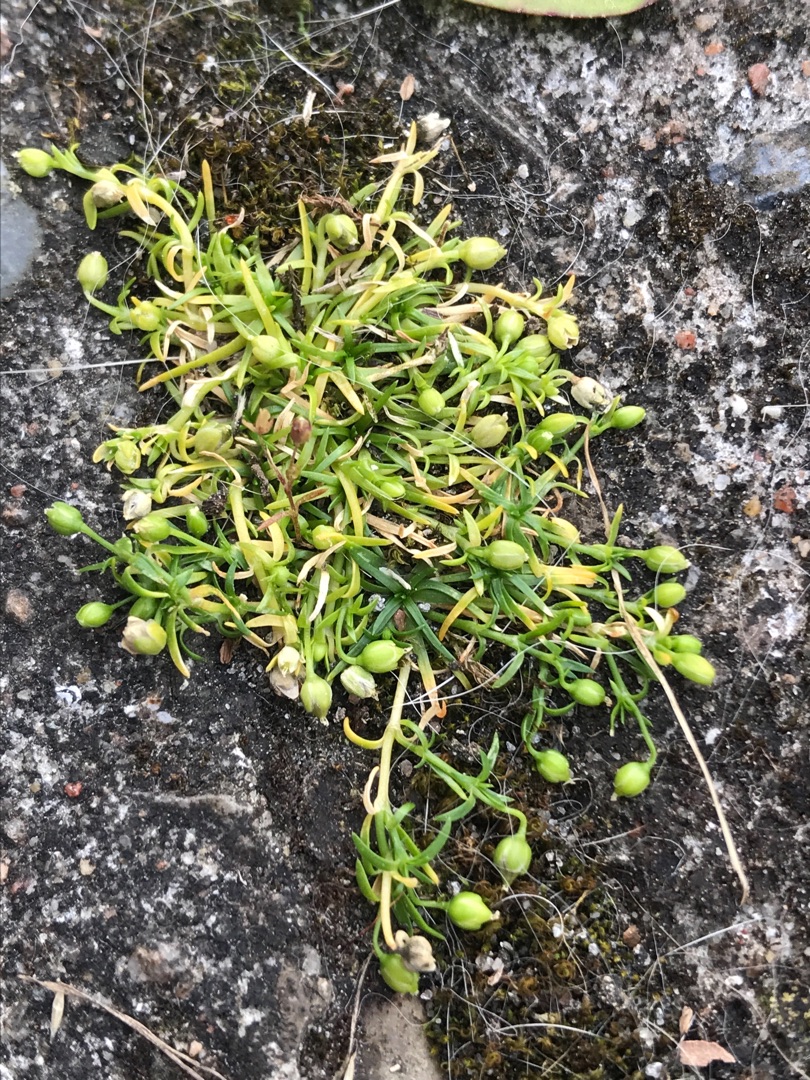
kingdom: Plantae
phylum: Tracheophyta
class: Magnoliopsida
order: Caryophyllales
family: Caryophyllaceae
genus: Sagina
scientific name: Sagina procumbens
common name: Almindelig firling
